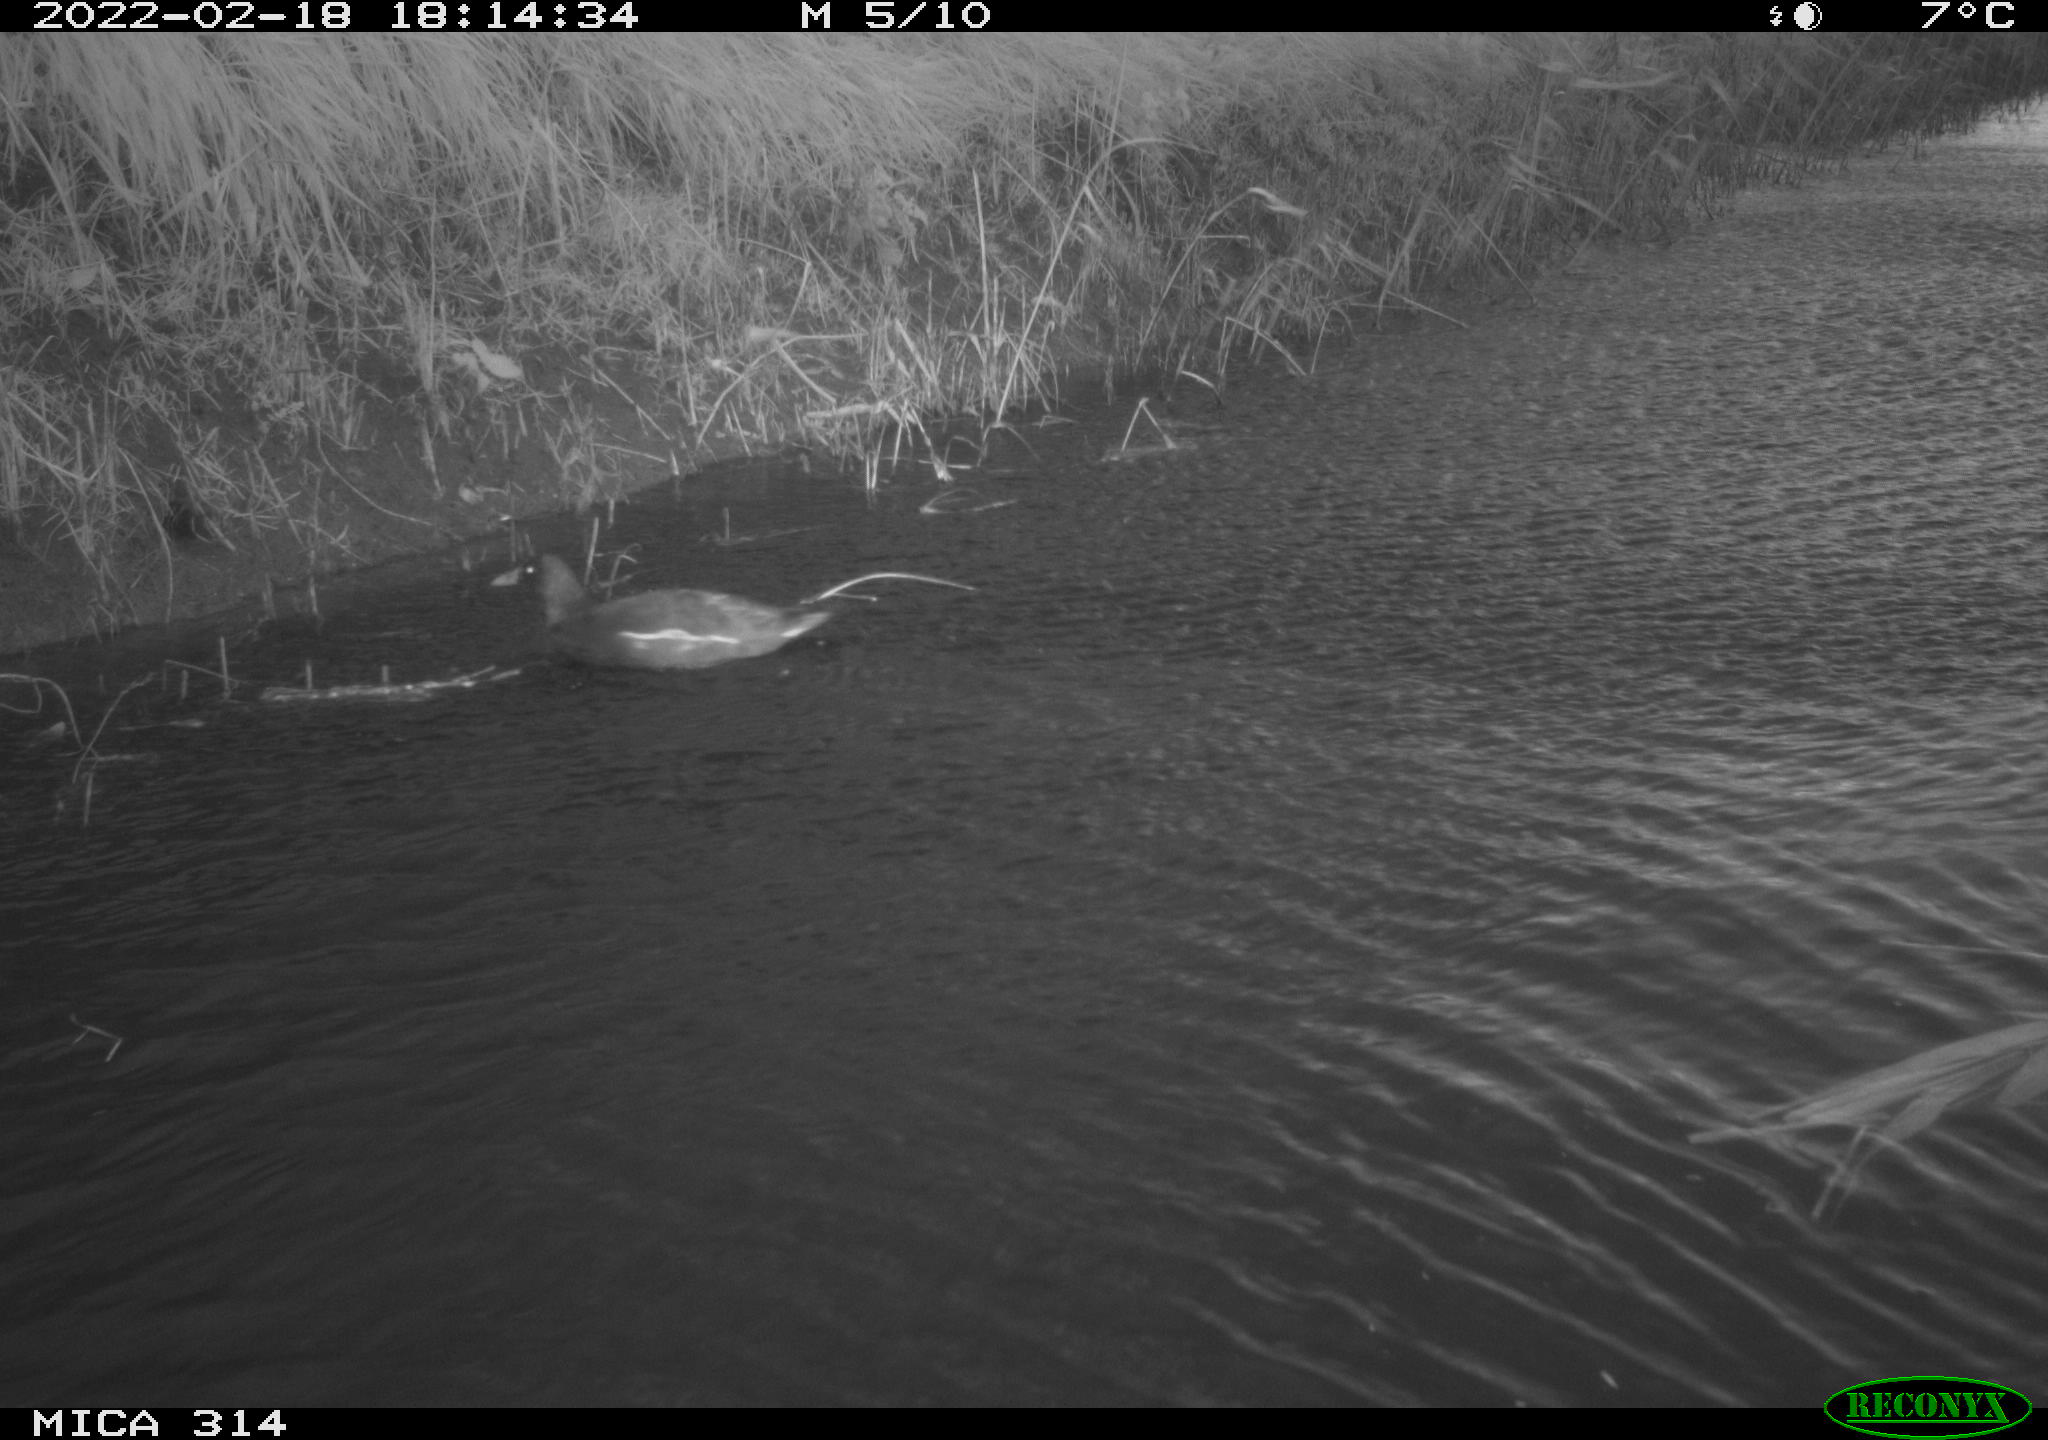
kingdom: Animalia
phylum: Chordata
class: Aves
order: Gruiformes
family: Rallidae
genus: Gallinula
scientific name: Gallinula chloropus
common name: Common moorhen
